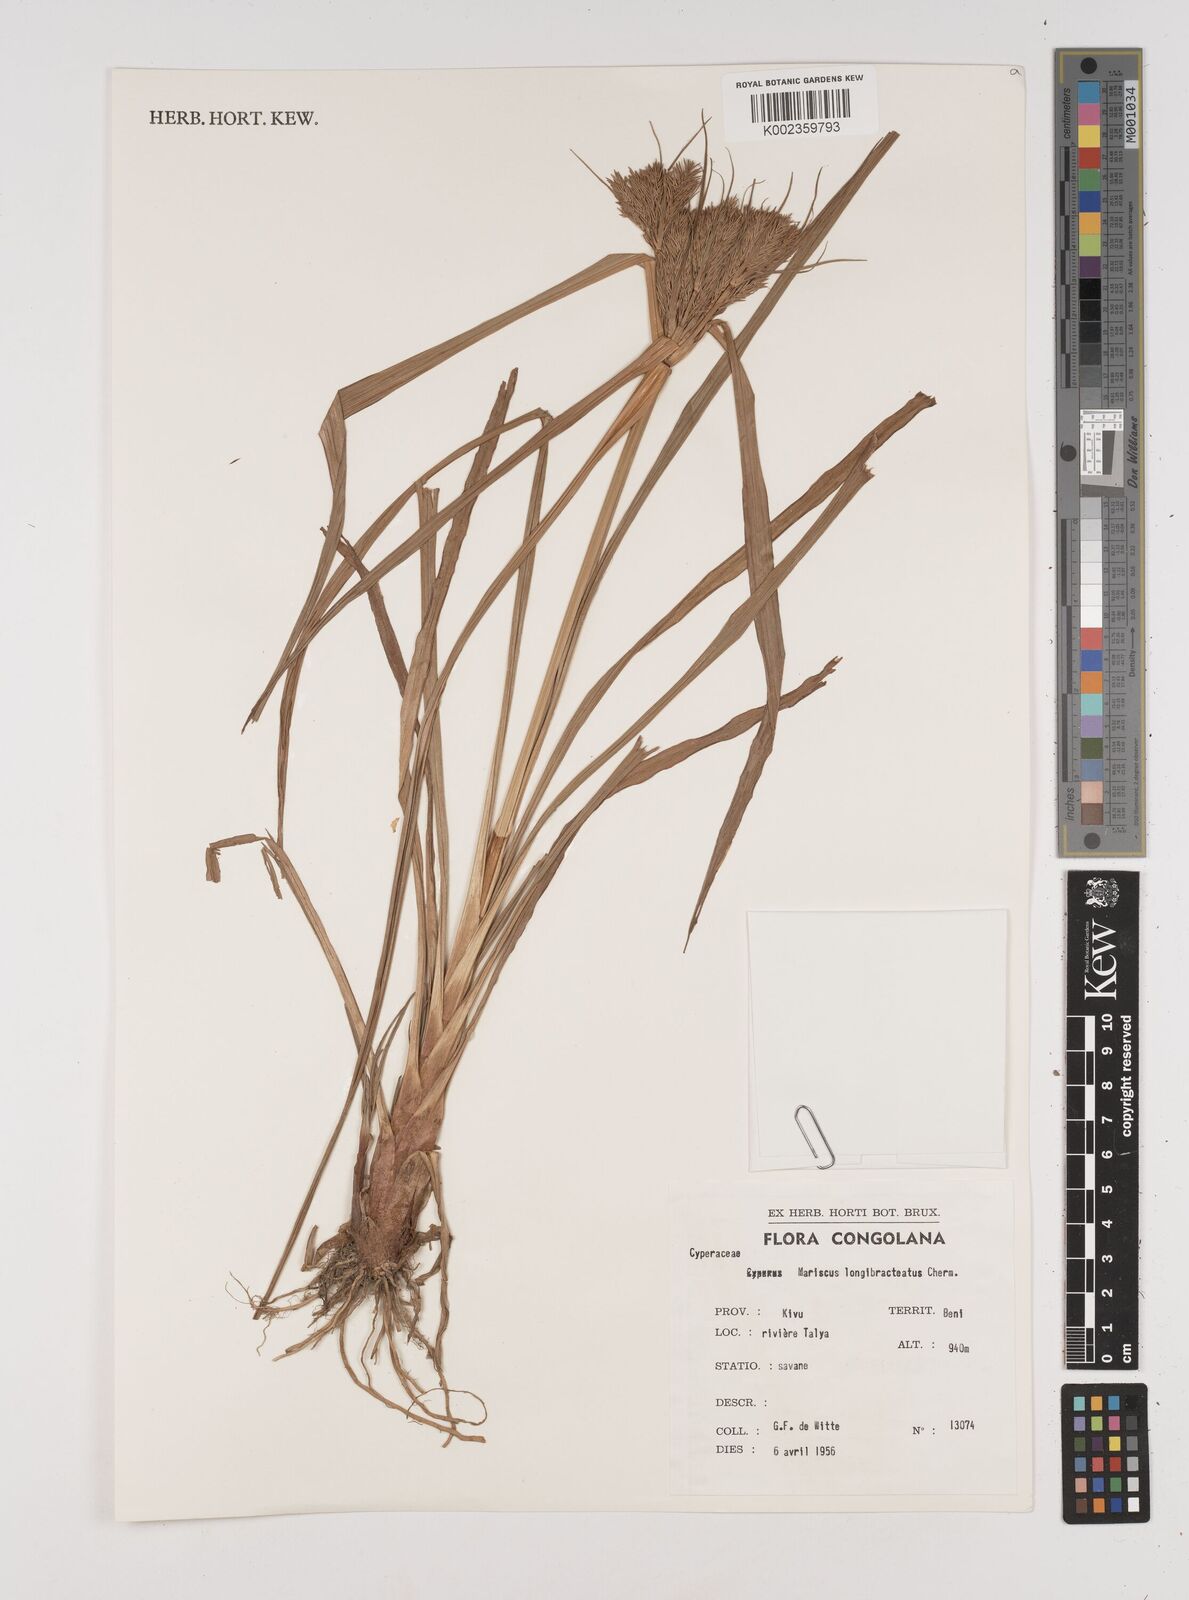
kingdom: Plantae
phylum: Tracheophyta
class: Liliopsida
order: Poales
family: Cyperaceae
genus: Cyperus
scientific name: Cyperus distans
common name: Slender cyperus
